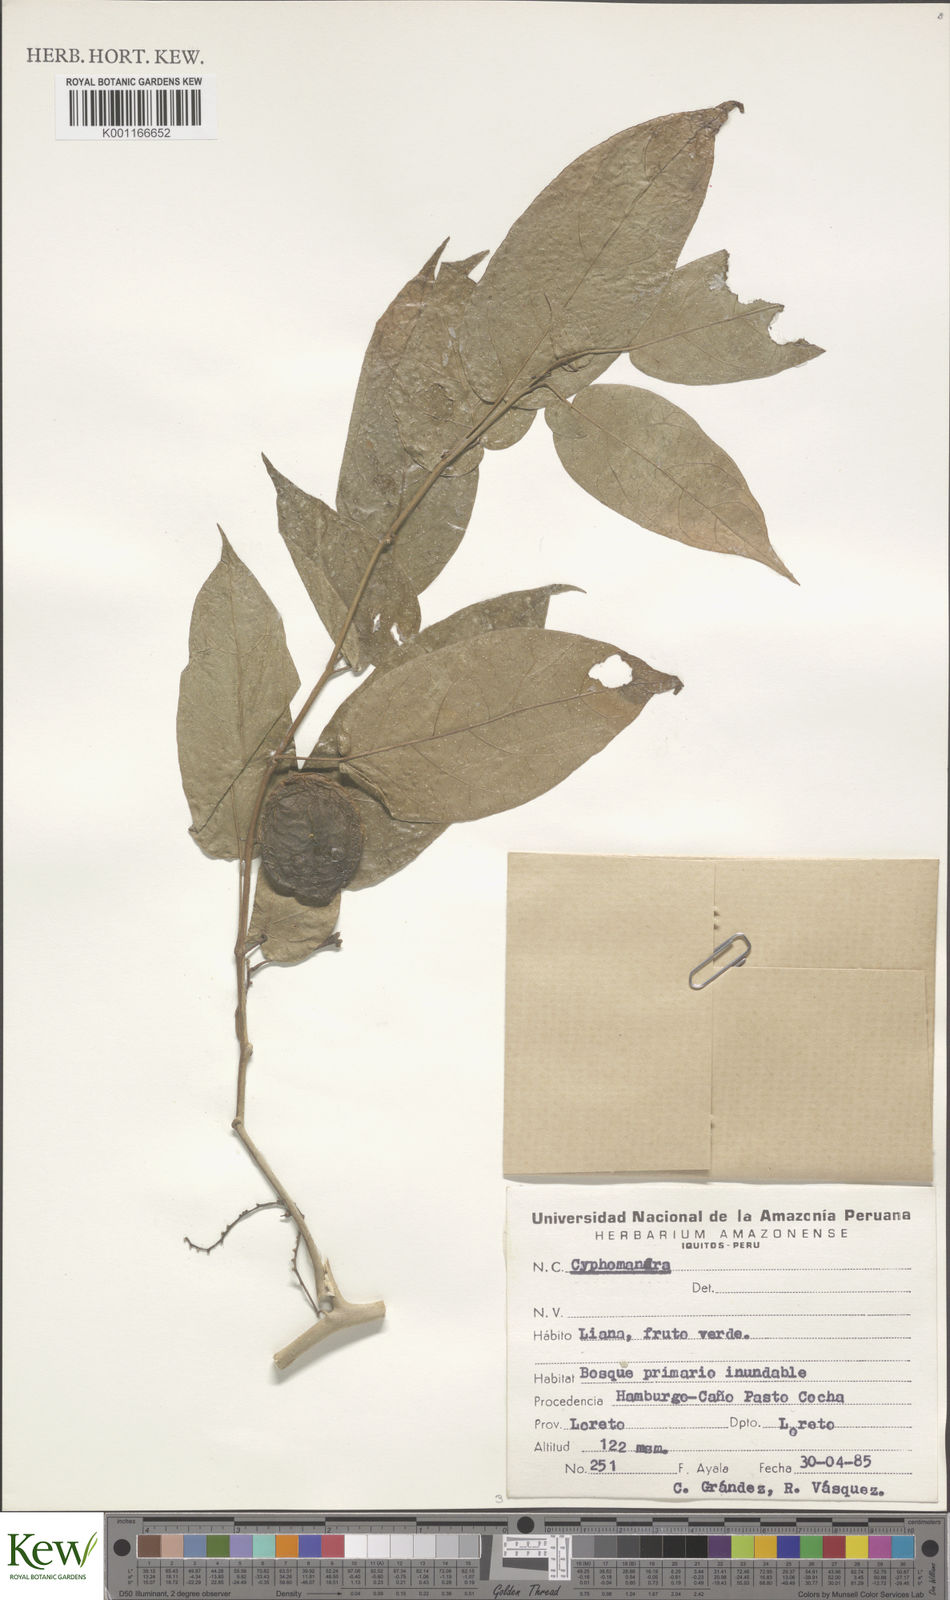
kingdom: Plantae
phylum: Tracheophyta
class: Magnoliopsida
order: Solanales
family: Solanaceae
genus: Solanum
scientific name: Solanum
